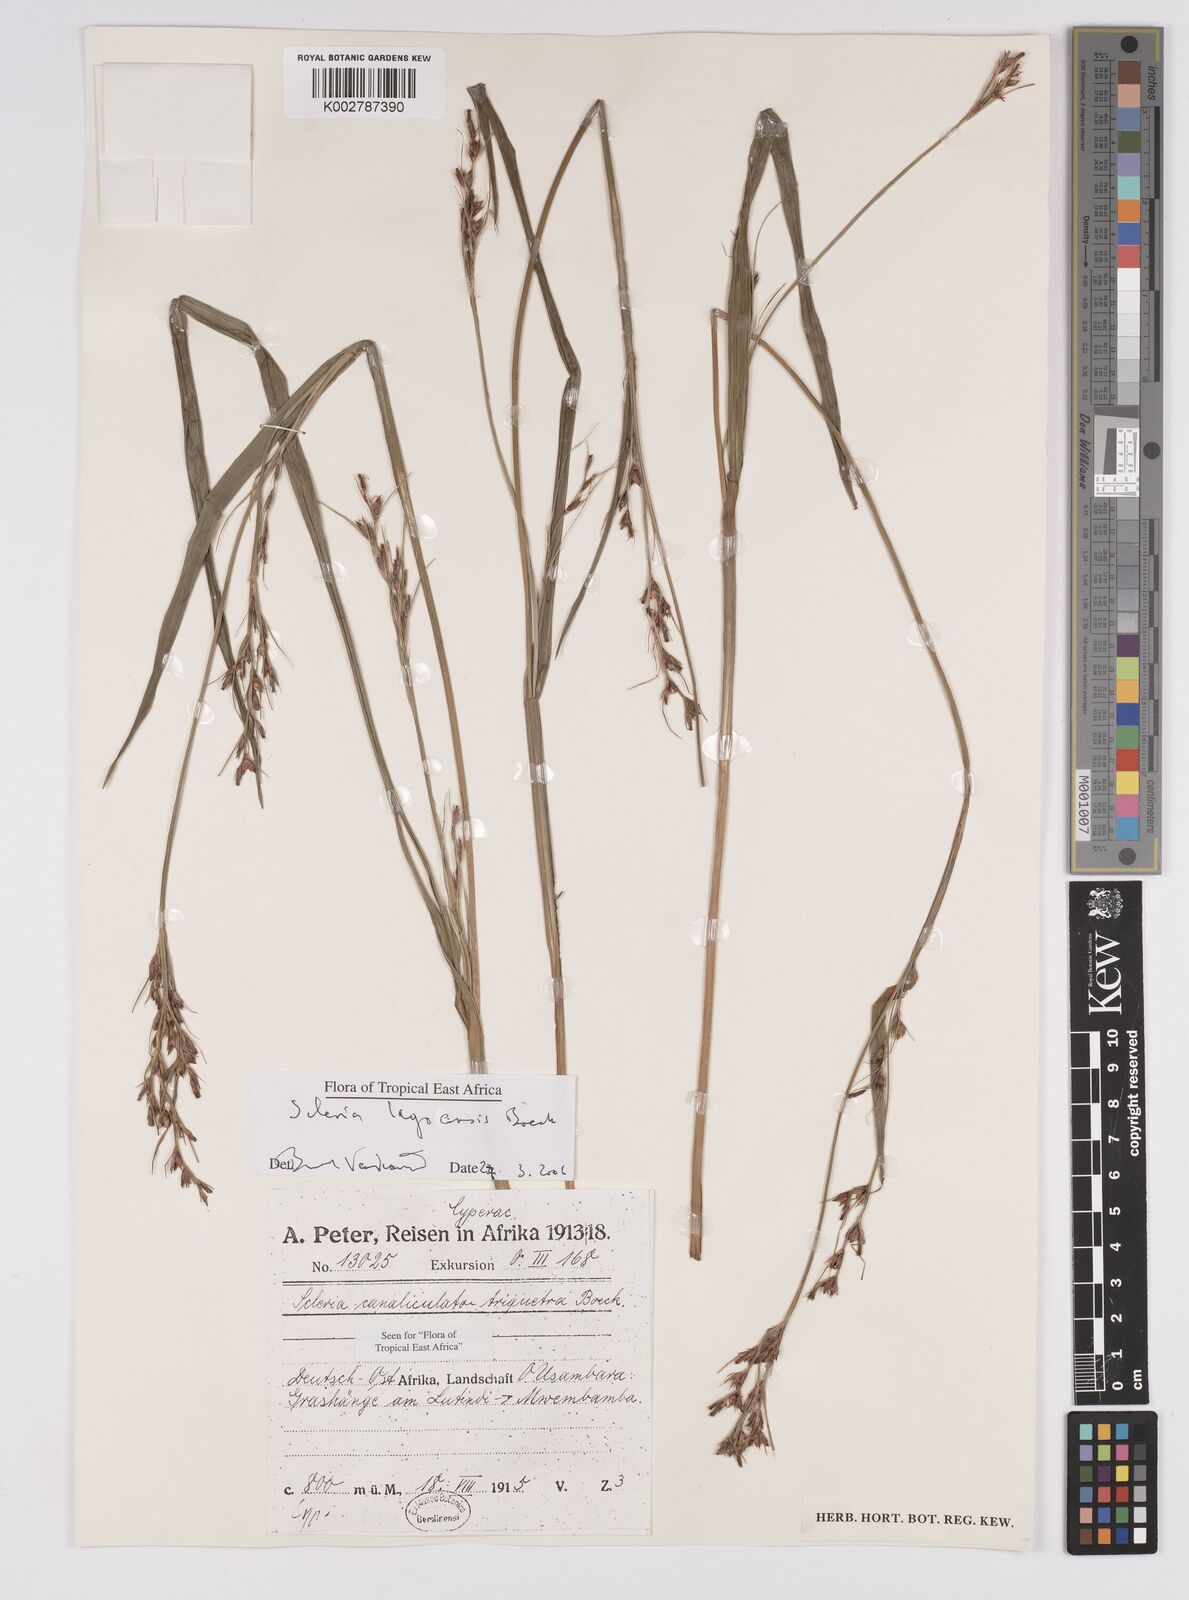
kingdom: Plantae
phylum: Tracheophyta
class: Liliopsida
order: Poales
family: Cyperaceae
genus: Scleria
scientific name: Scleria lagoensis
